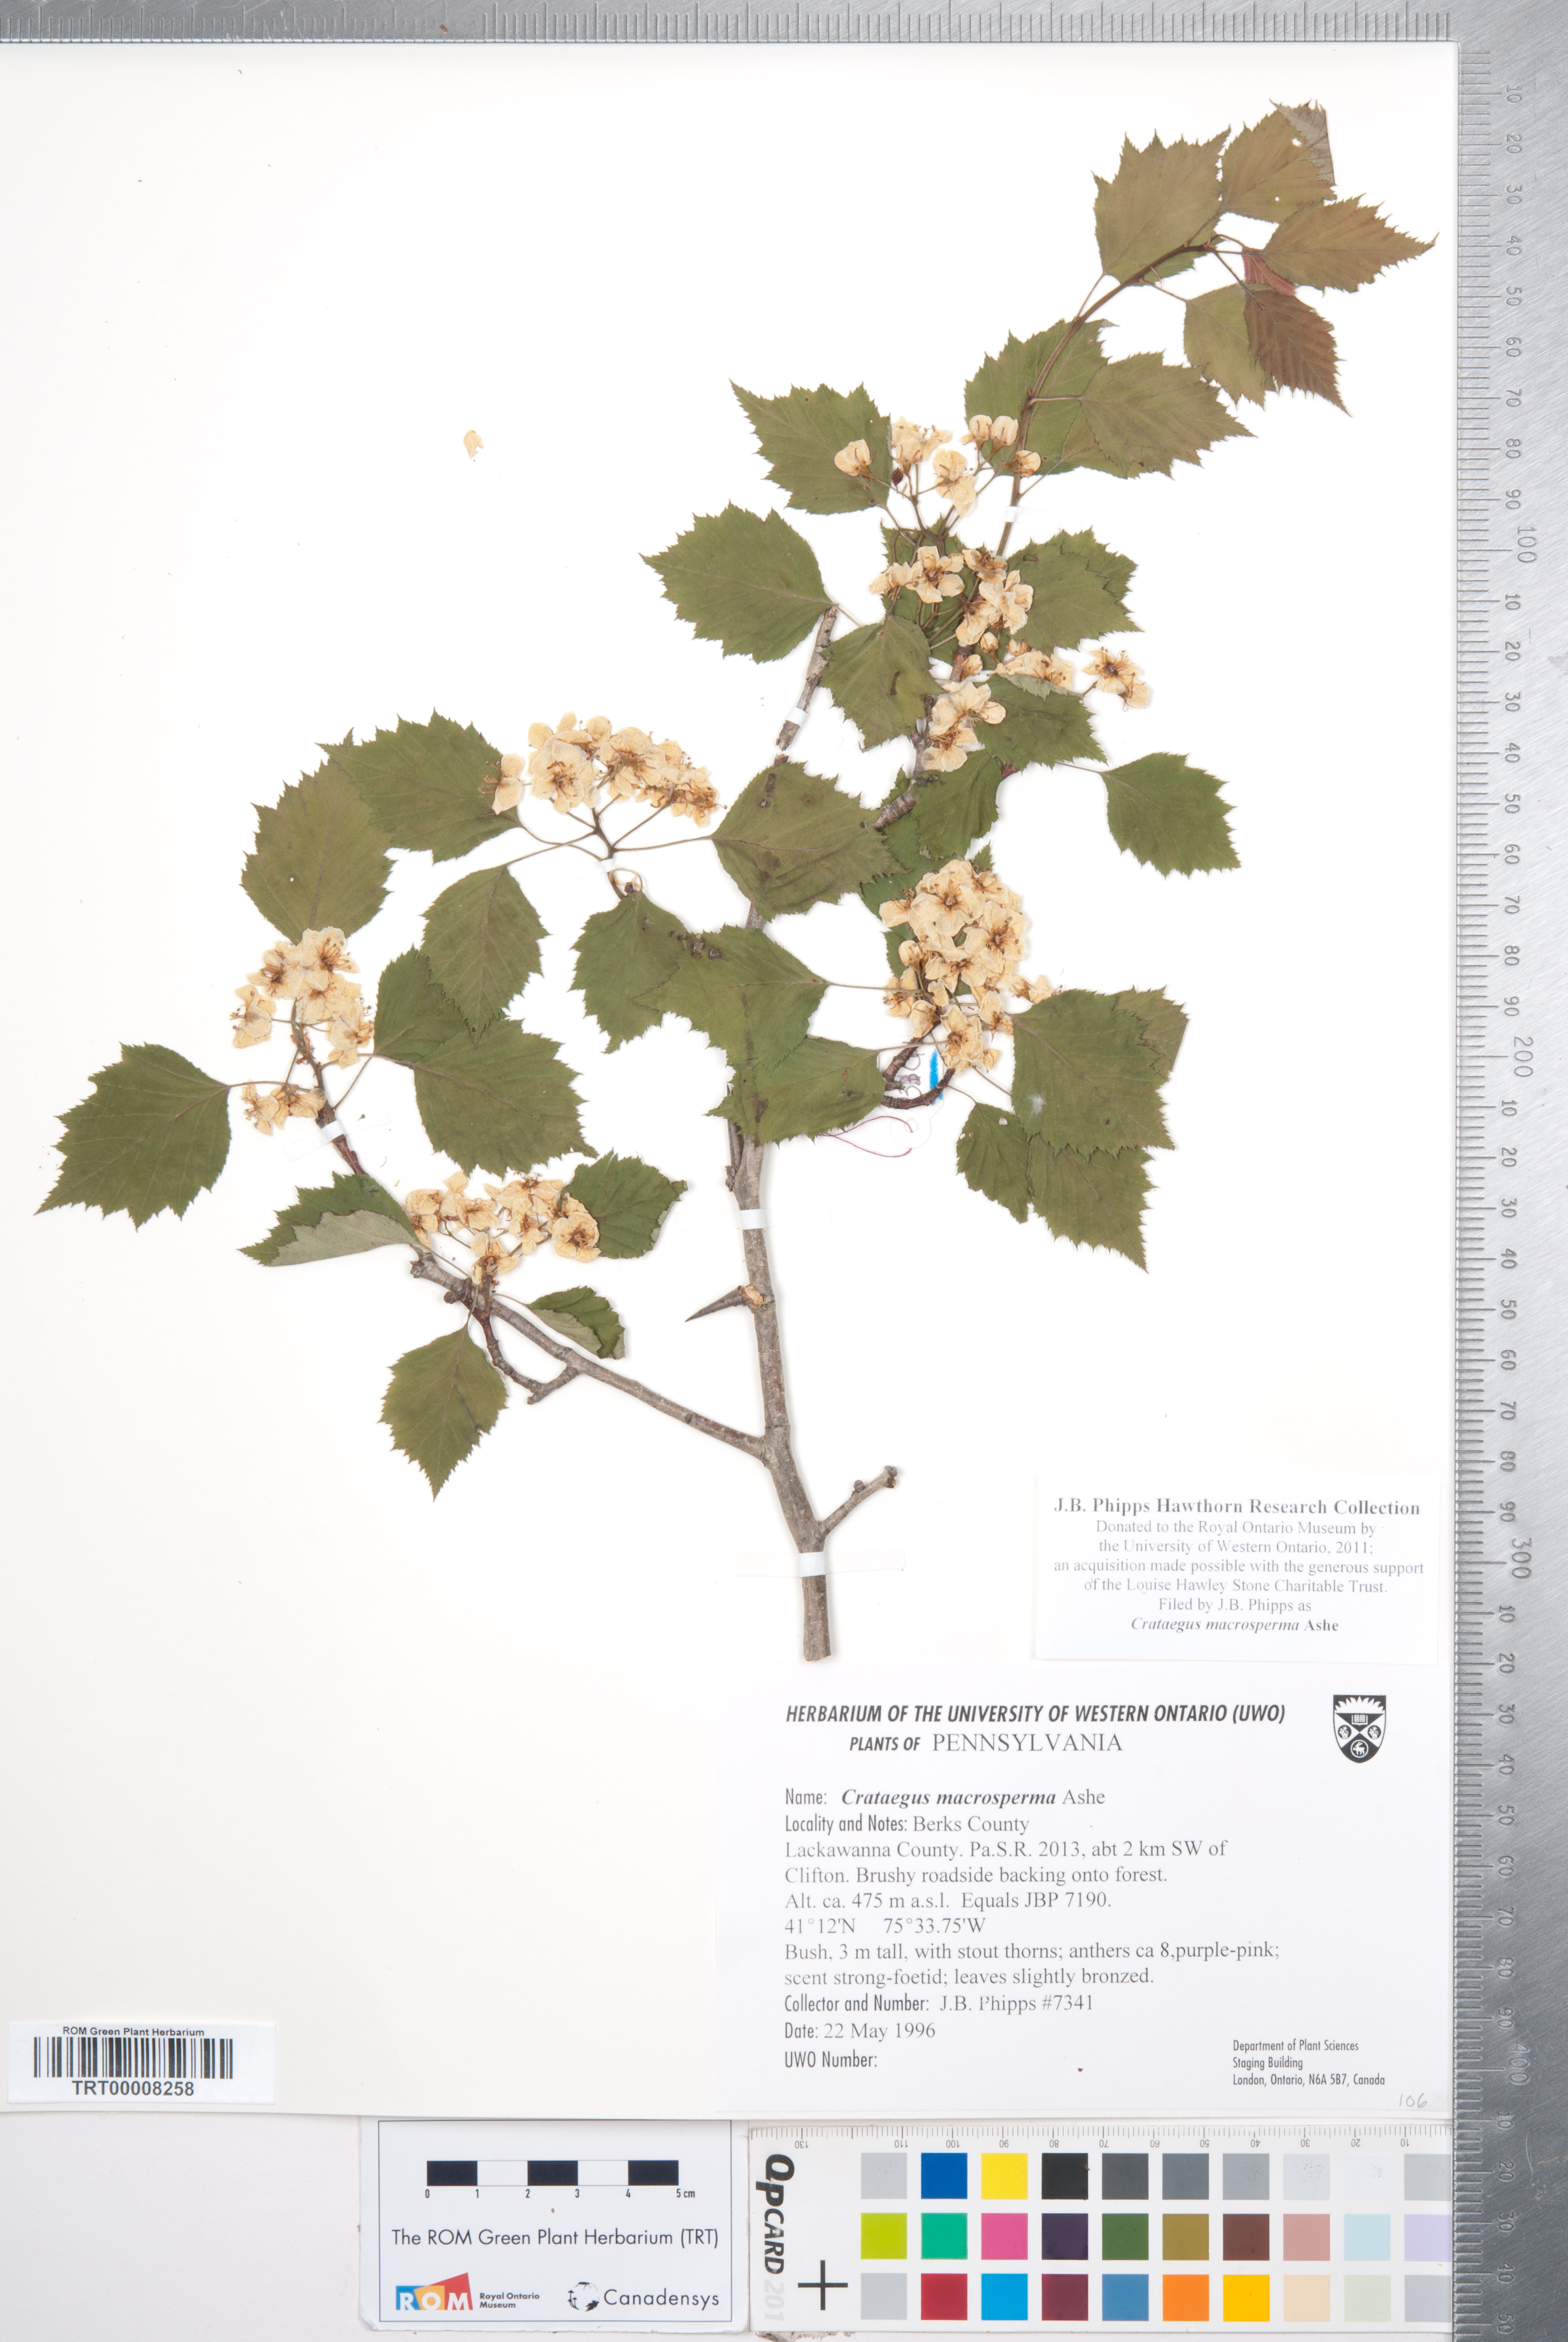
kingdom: Plantae
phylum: Tracheophyta
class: Magnoliopsida
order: Rosales
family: Rosaceae
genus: Crataegus
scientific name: Crataegus macrosperma
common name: Variable hawthorn
